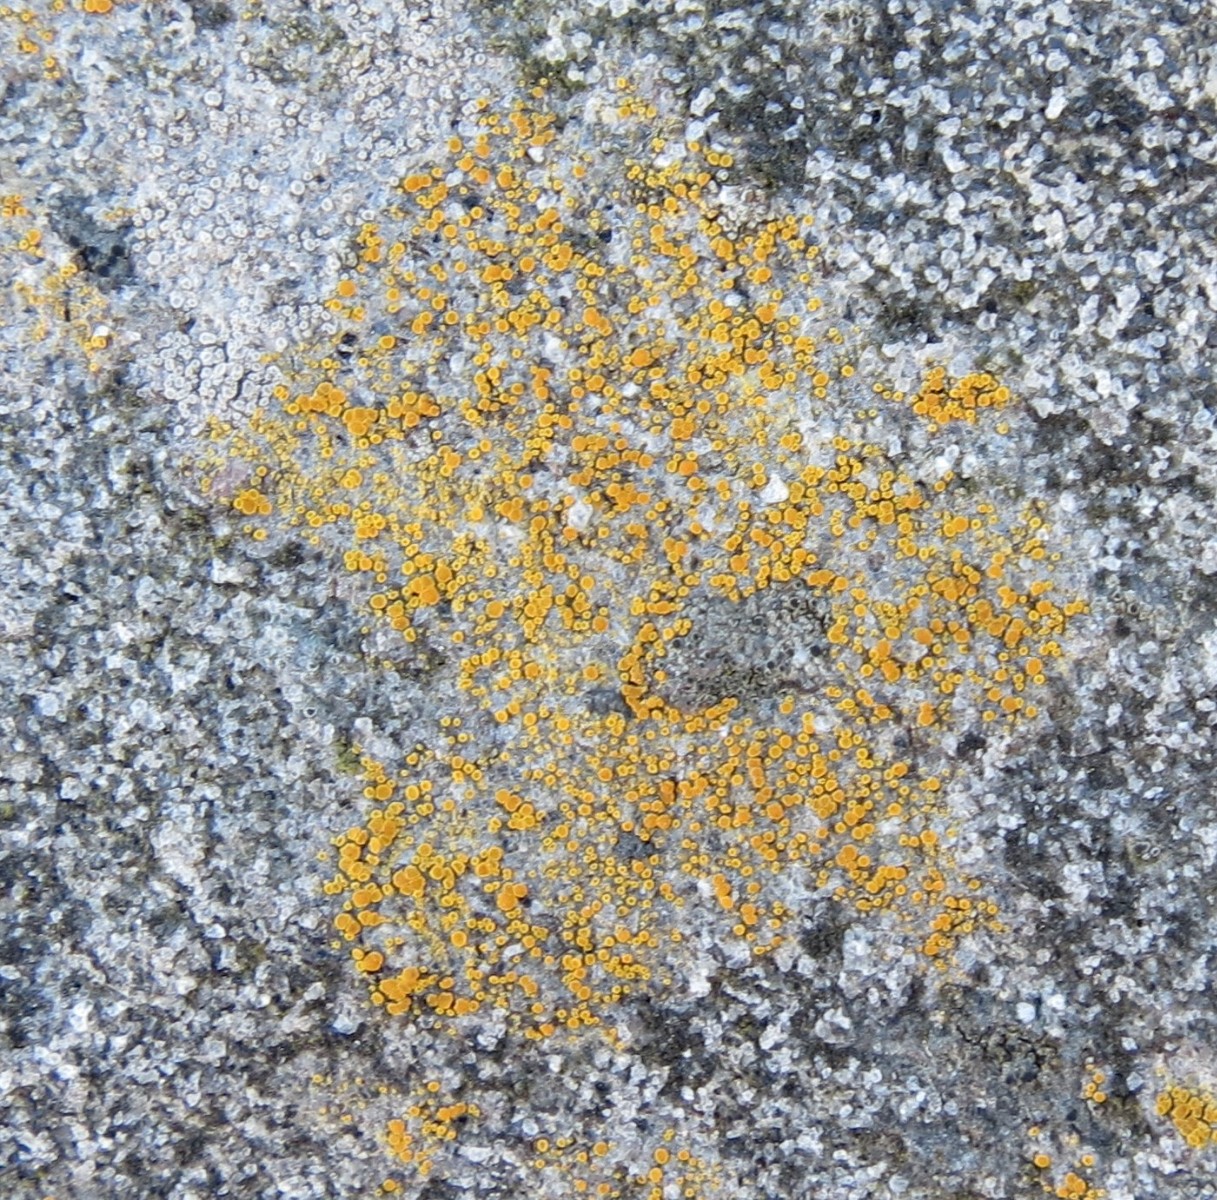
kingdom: Fungi
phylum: Ascomycota
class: Lecanoromycetes
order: Teloschistales
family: Teloschistaceae
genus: Athallia
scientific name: Athallia holocarpa
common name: liden orangelav
